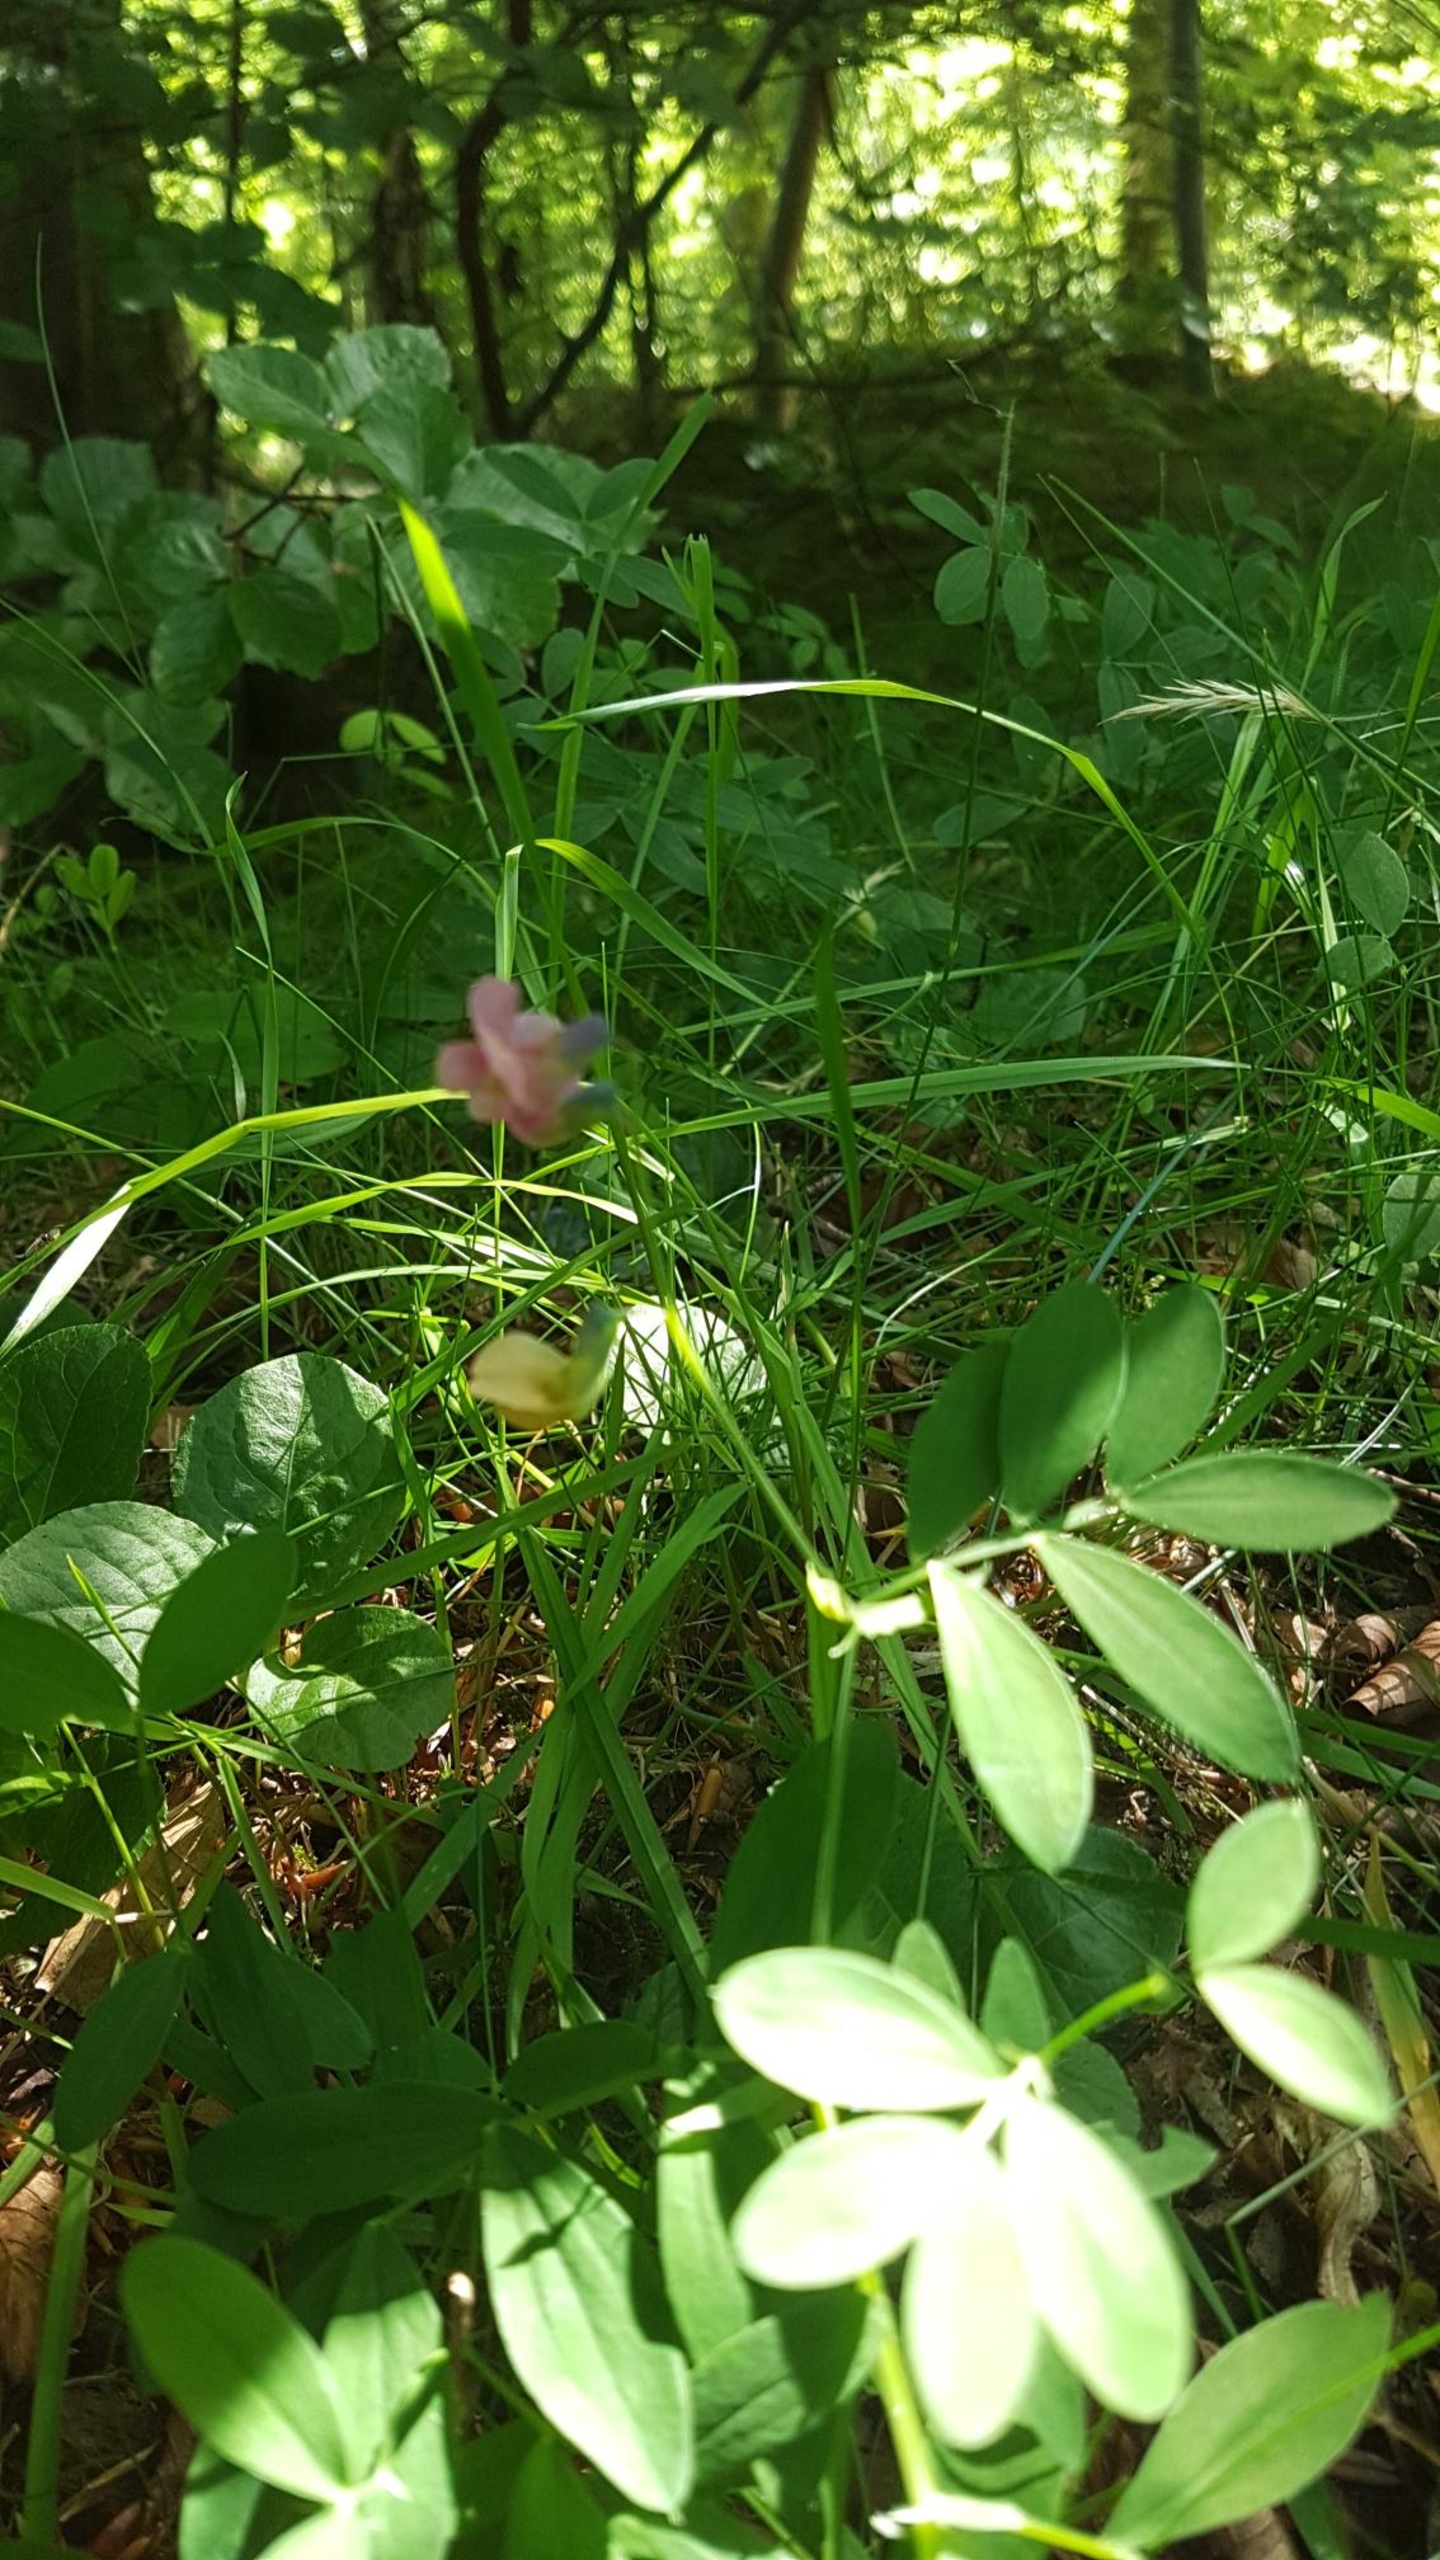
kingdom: Plantae
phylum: Tracheophyta
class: Magnoliopsida
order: Fabales
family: Fabaceae
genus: Lathyrus
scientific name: Lathyrus linifolius
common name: Krat-fladbælg
